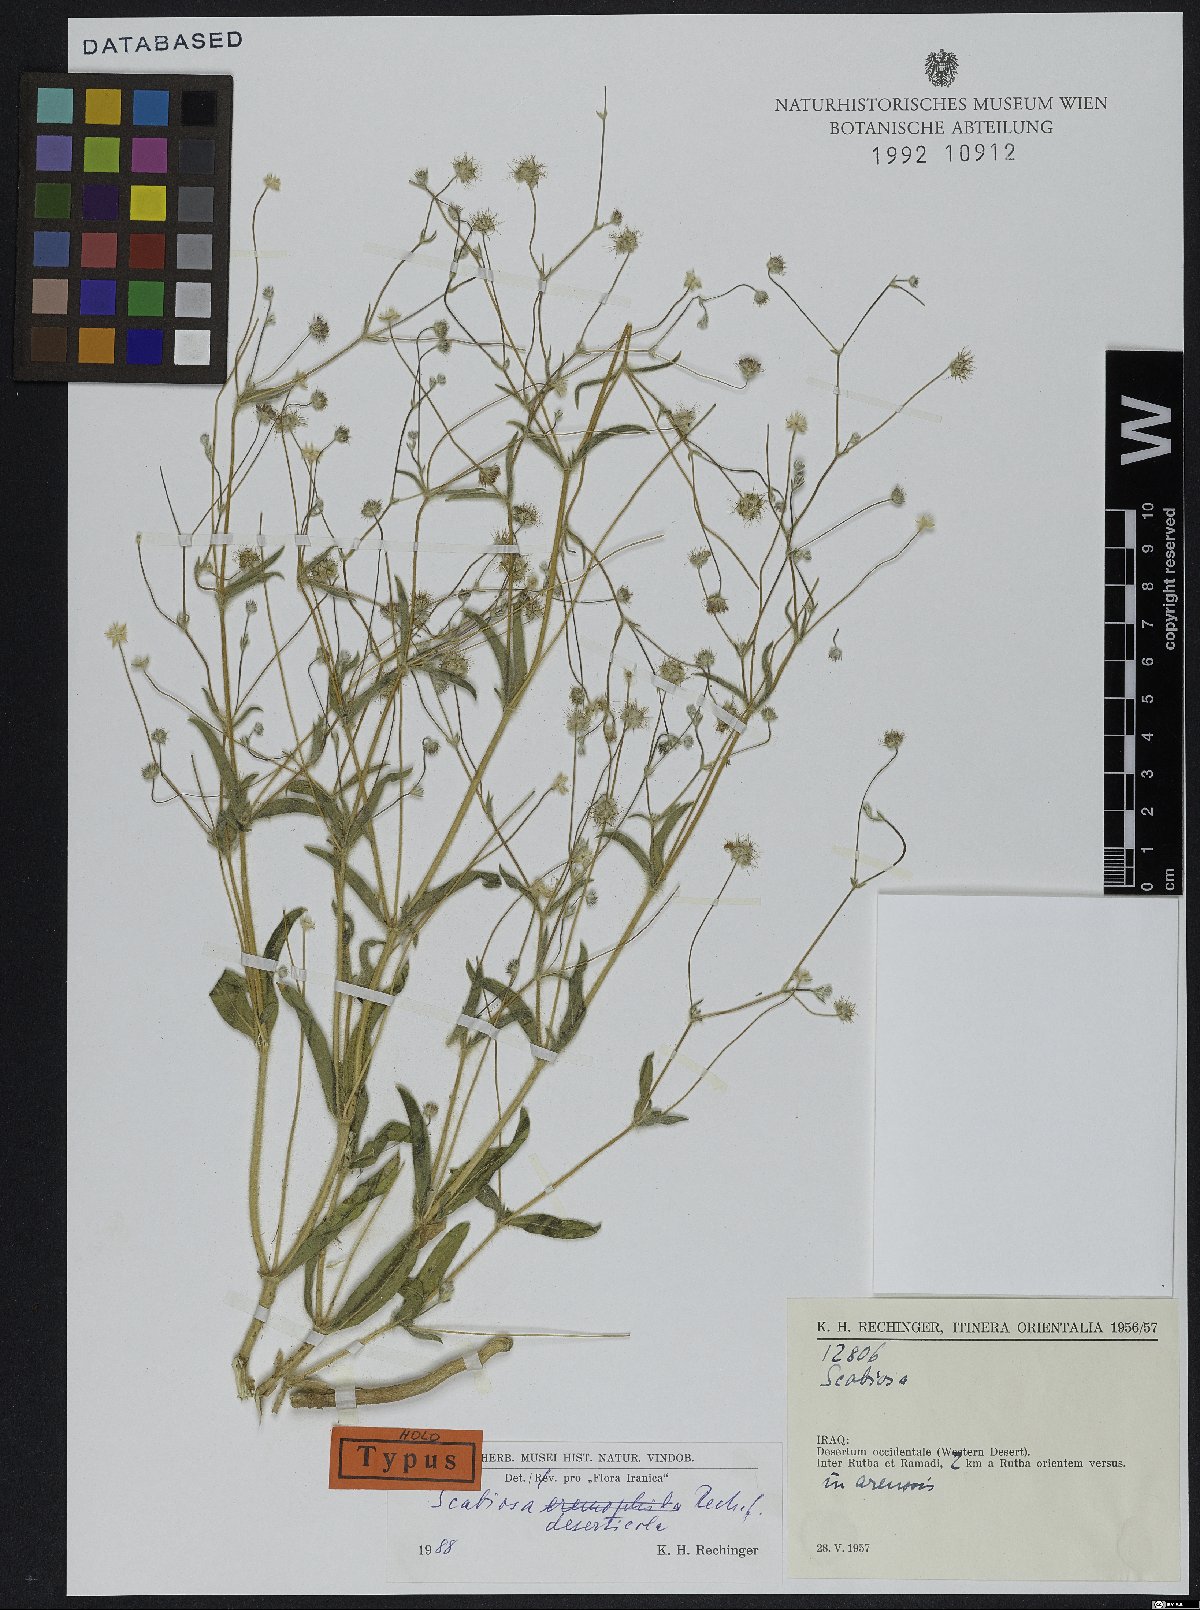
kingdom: Plantae
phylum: Tracheophyta
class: Magnoliopsida
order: Dipsacales
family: Caprifoliaceae
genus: Lomelosia
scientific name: Lomelosia deserticola
